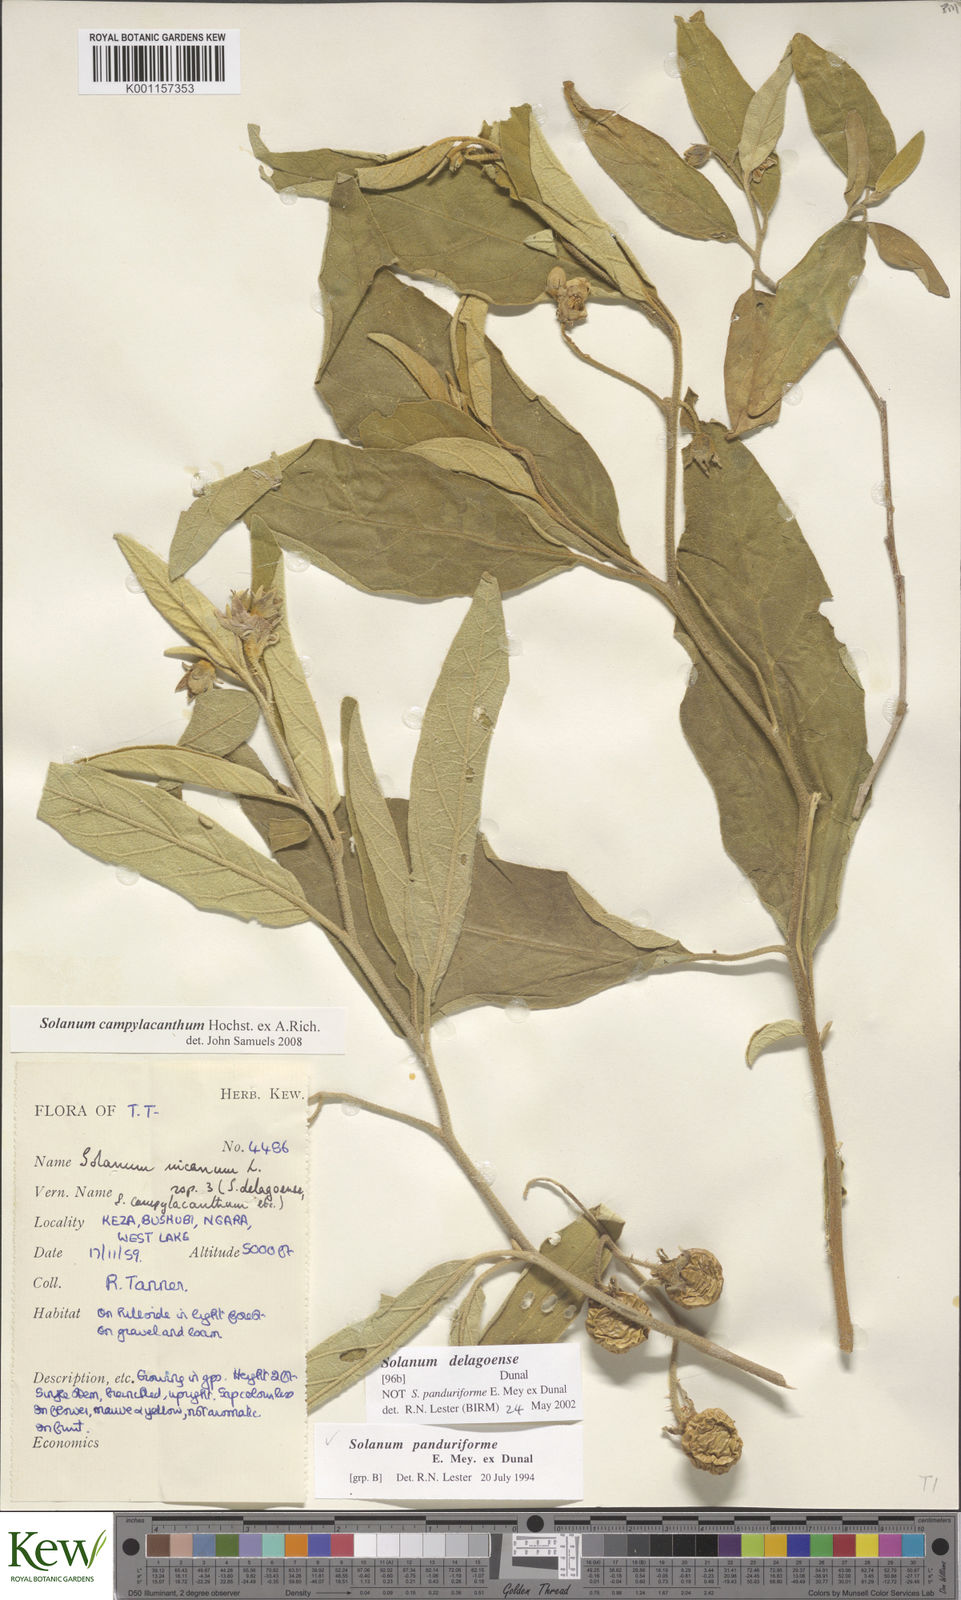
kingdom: Plantae
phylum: Tracheophyta
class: Magnoliopsida
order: Solanales
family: Solanaceae
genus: Solanum
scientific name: Solanum campylacanthum
